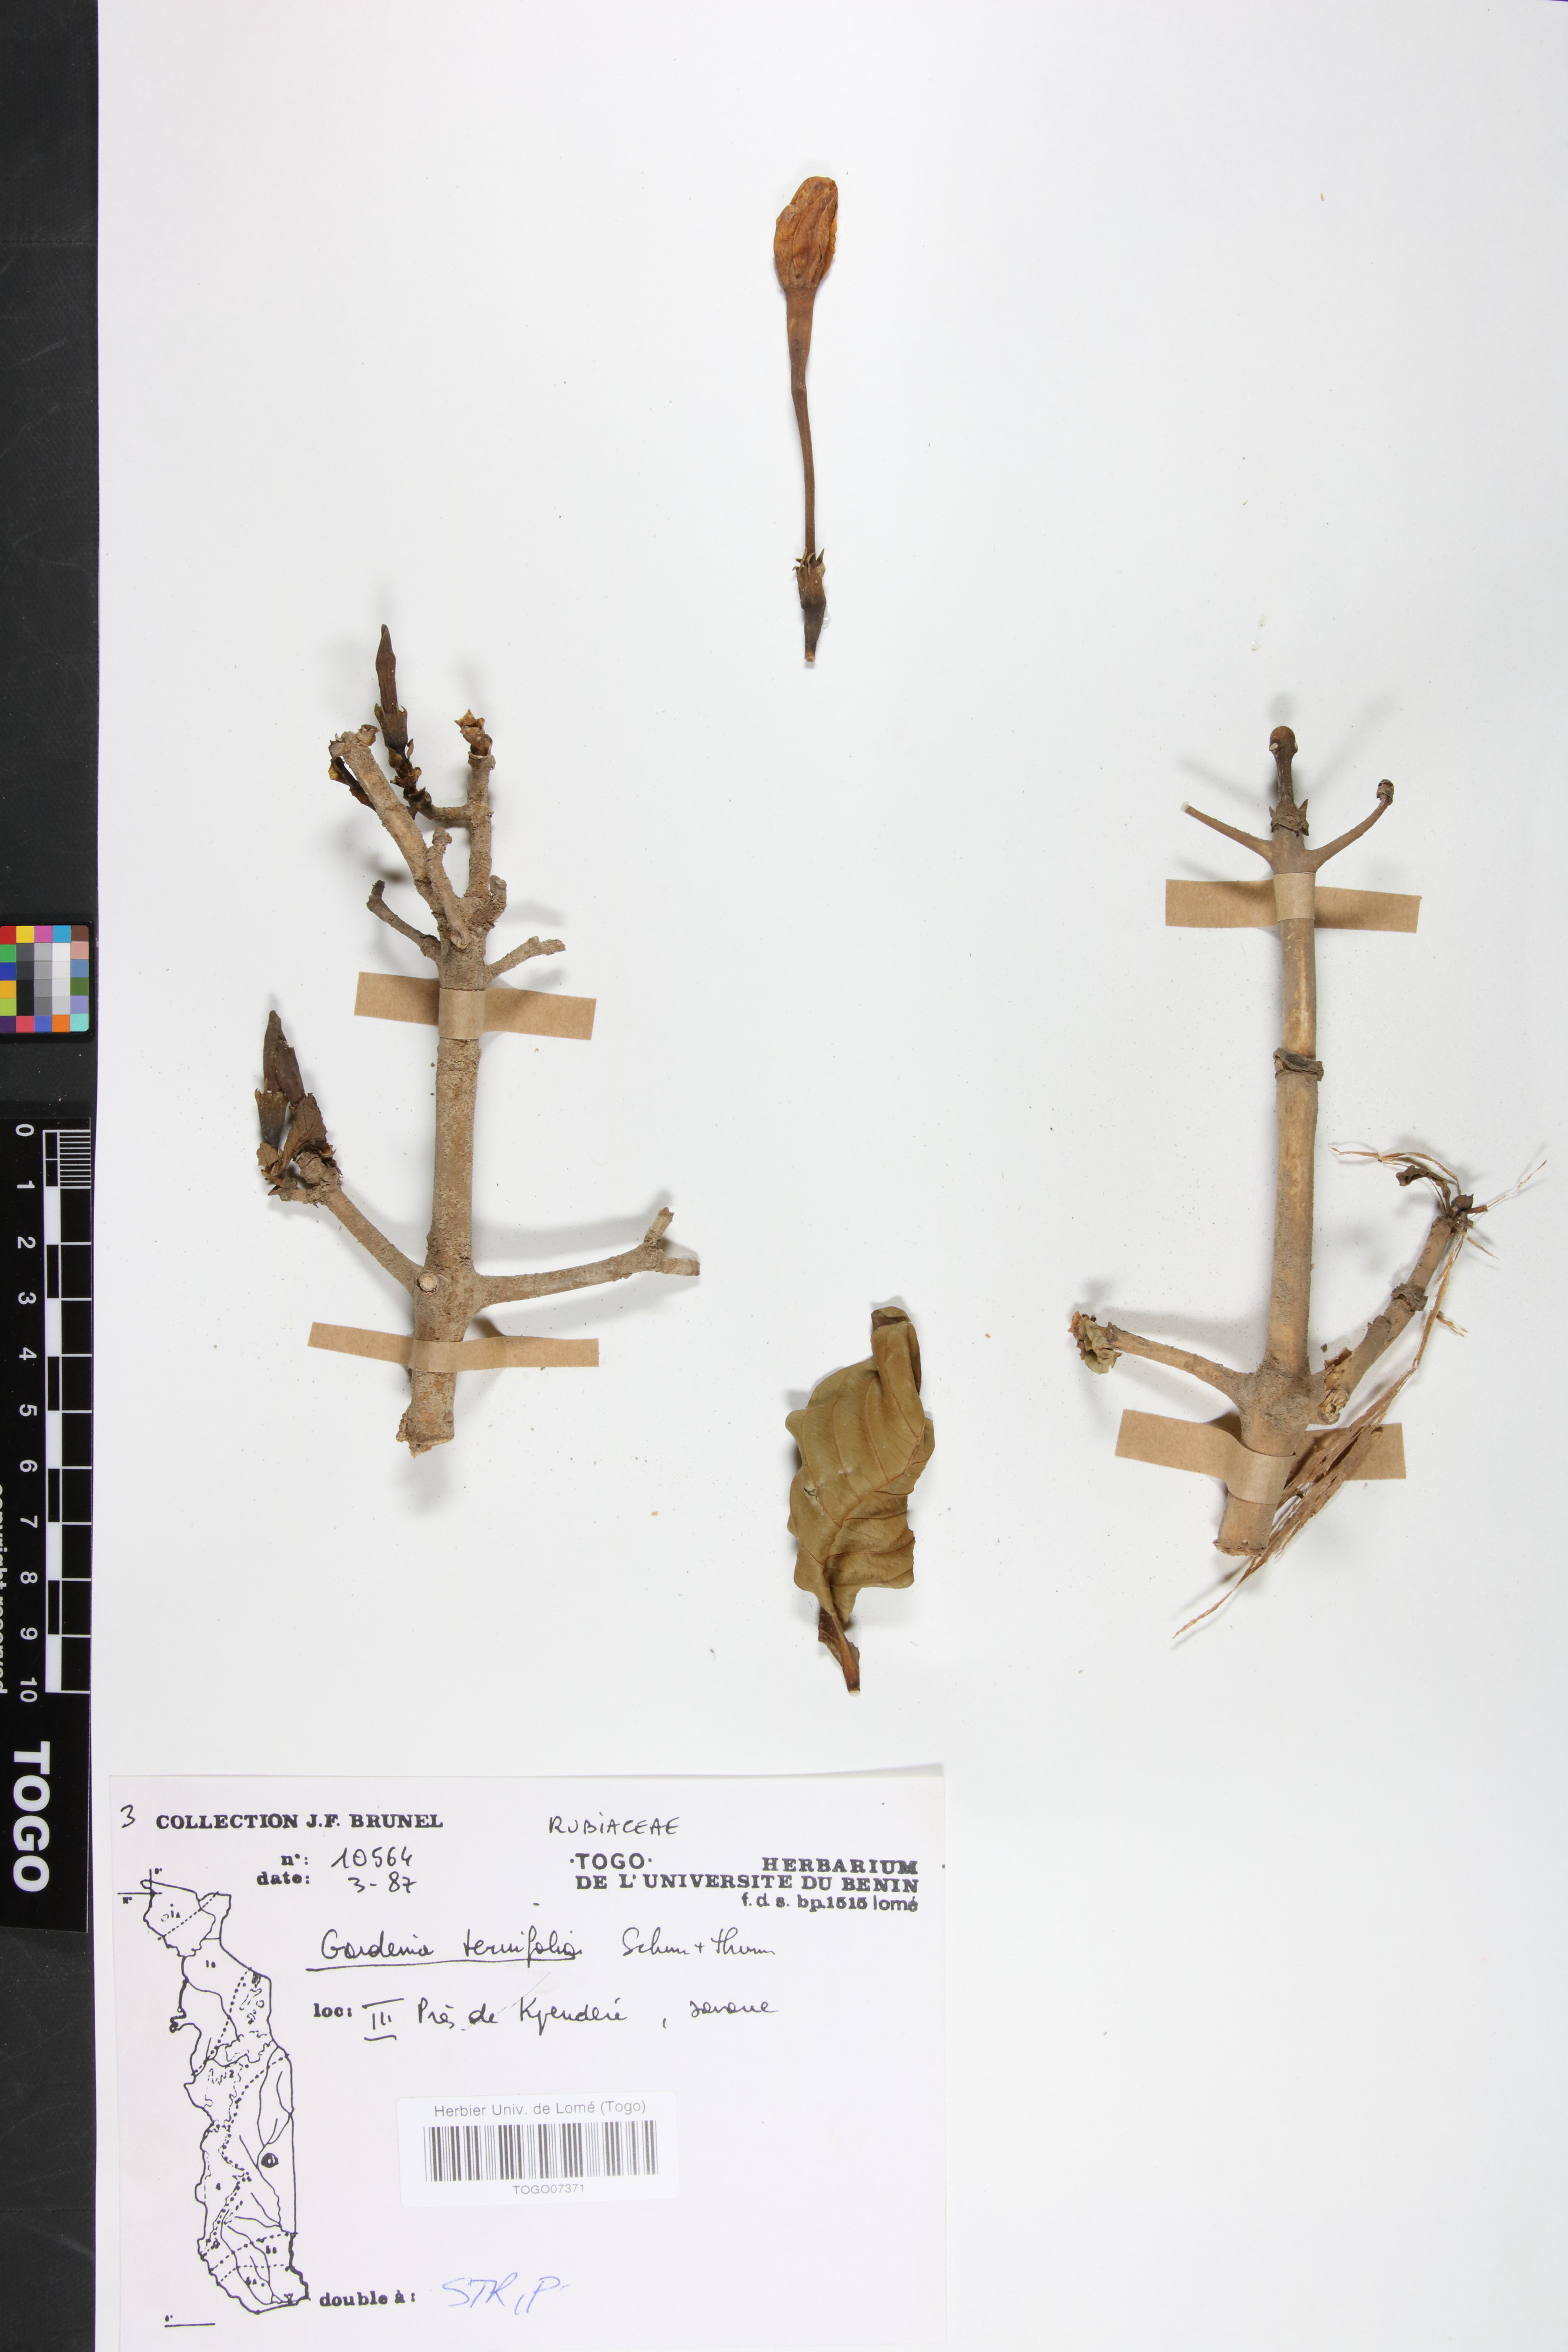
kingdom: Plantae
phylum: Tracheophyta
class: Magnoliopsida
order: Gentianales
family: Rubiaceae
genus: Gardenia
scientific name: Gardenia ternifolia
